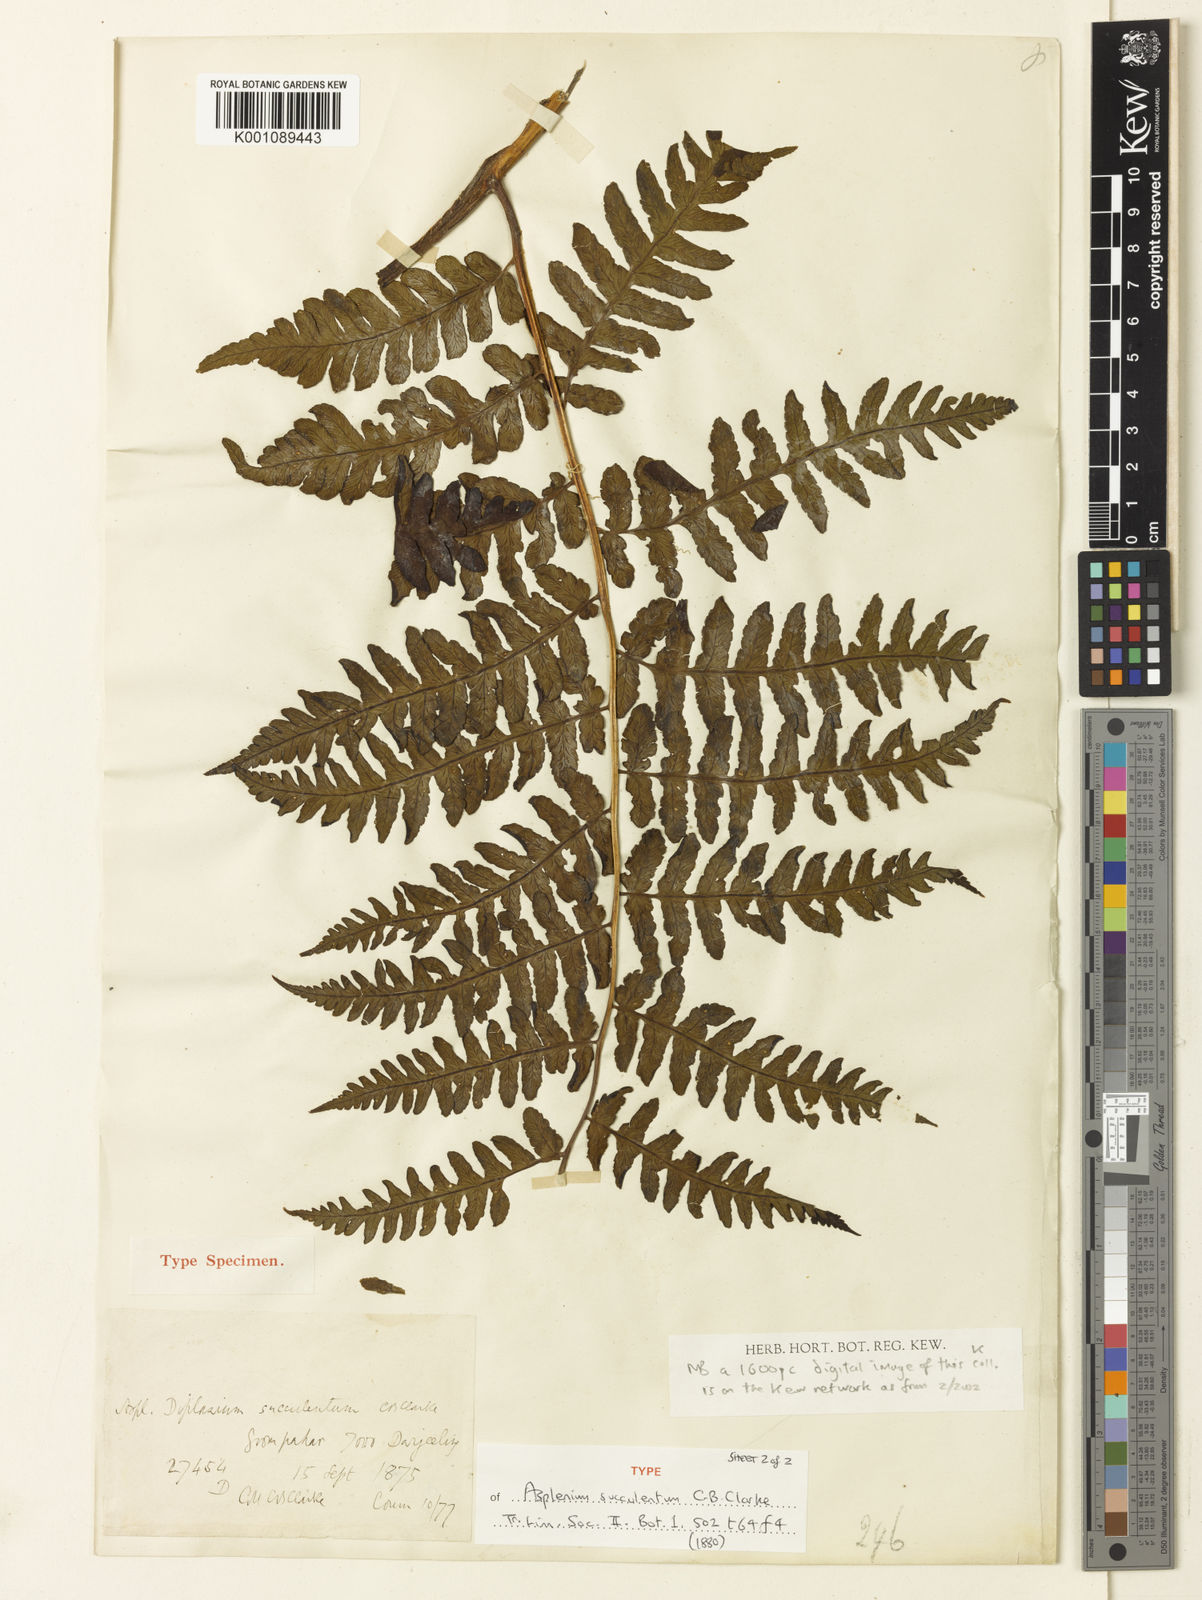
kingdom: Plantae
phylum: Tracheophyta
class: Polypodiopsida
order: Polypodiales
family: Athyriaceae
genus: Diplazium
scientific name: Diplazium succulentum
